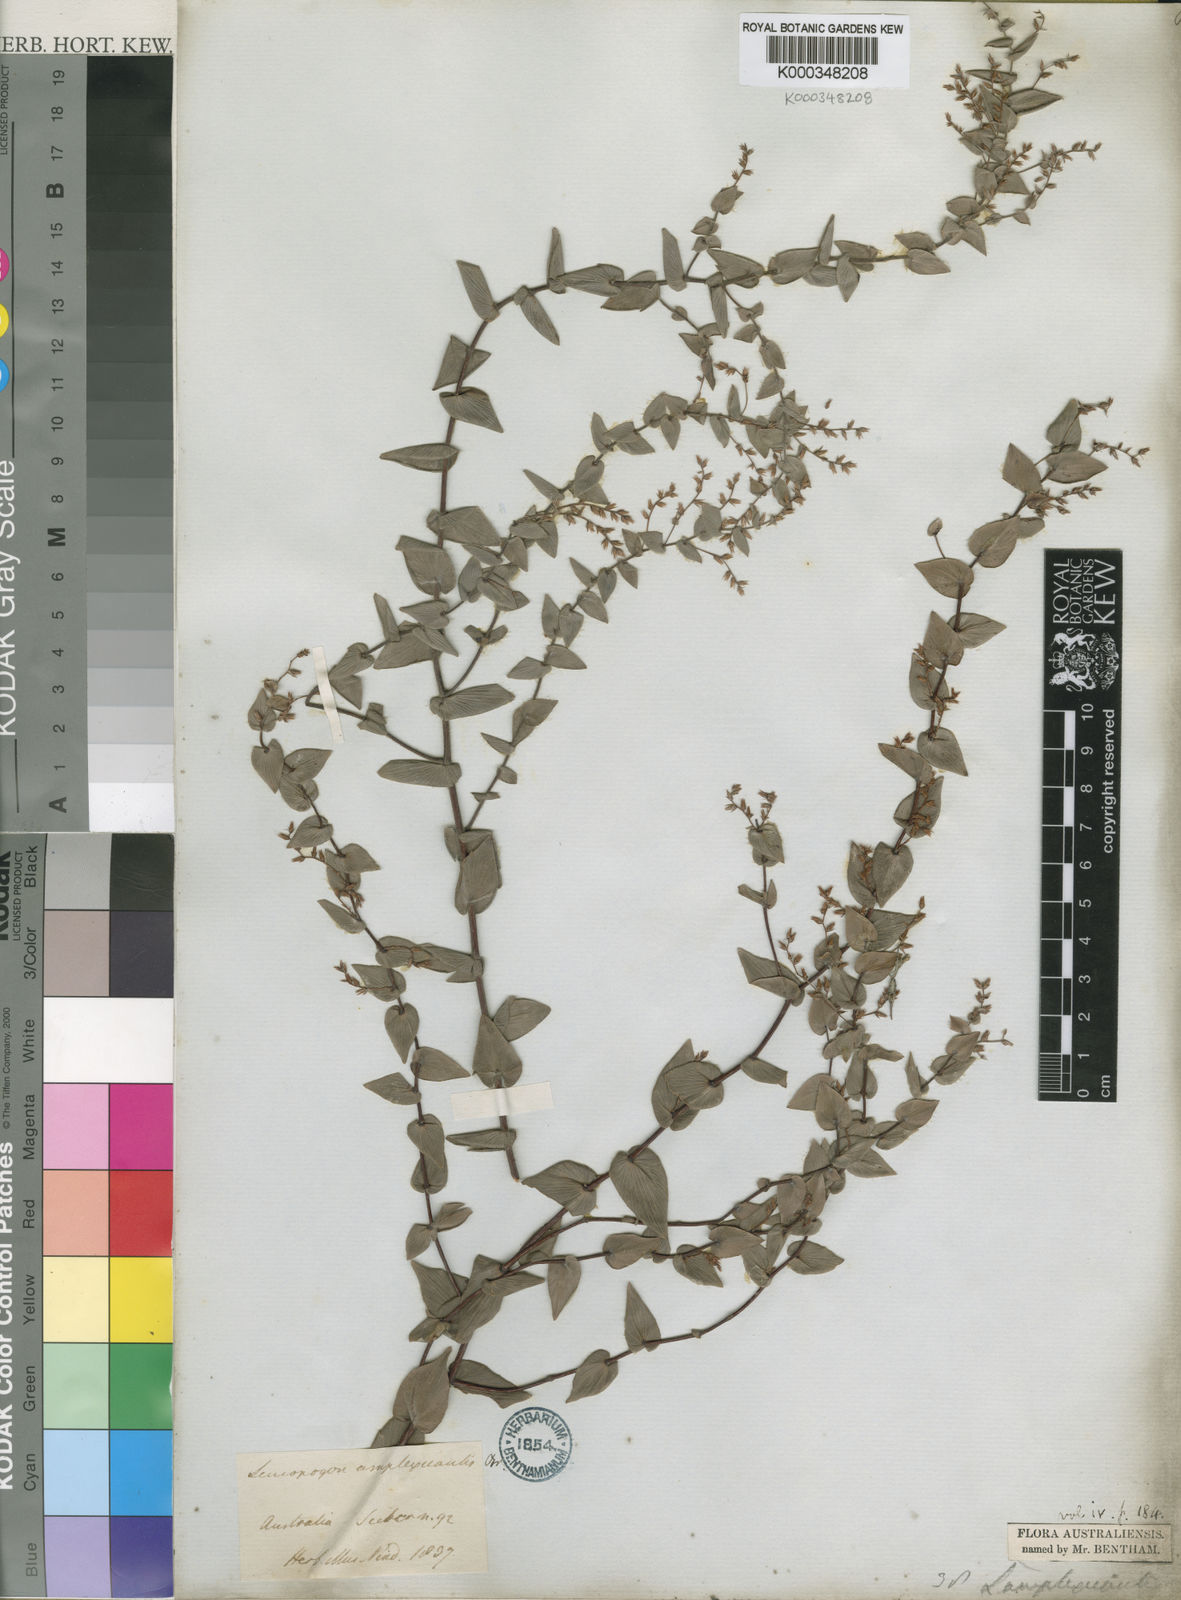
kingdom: Plantae
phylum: Tracheophyta
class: Magnoliopsida
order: Ericales
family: Ericaceae
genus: Leucopogon
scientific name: Leucopogon amplexicaulis
